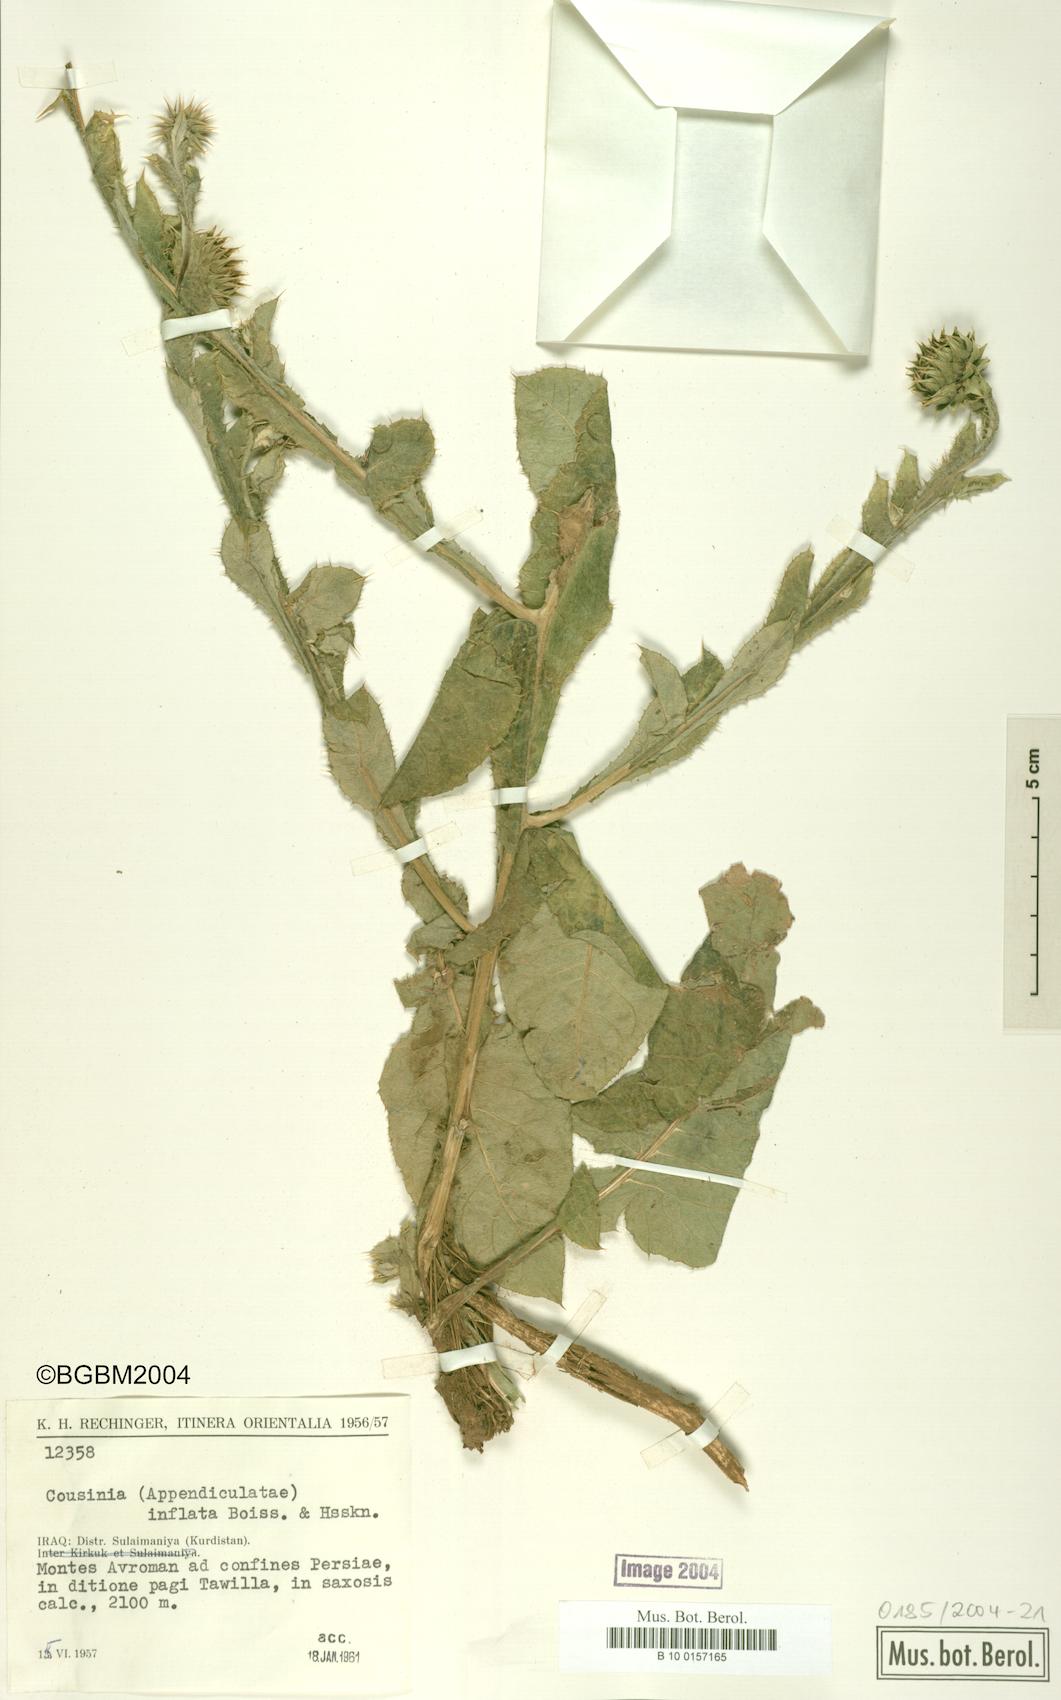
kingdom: Plantae
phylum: Tracheophyta
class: Magnoliopsida
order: Asterales
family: Asteraceae
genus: Cousinia
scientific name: Cousinia inflata
